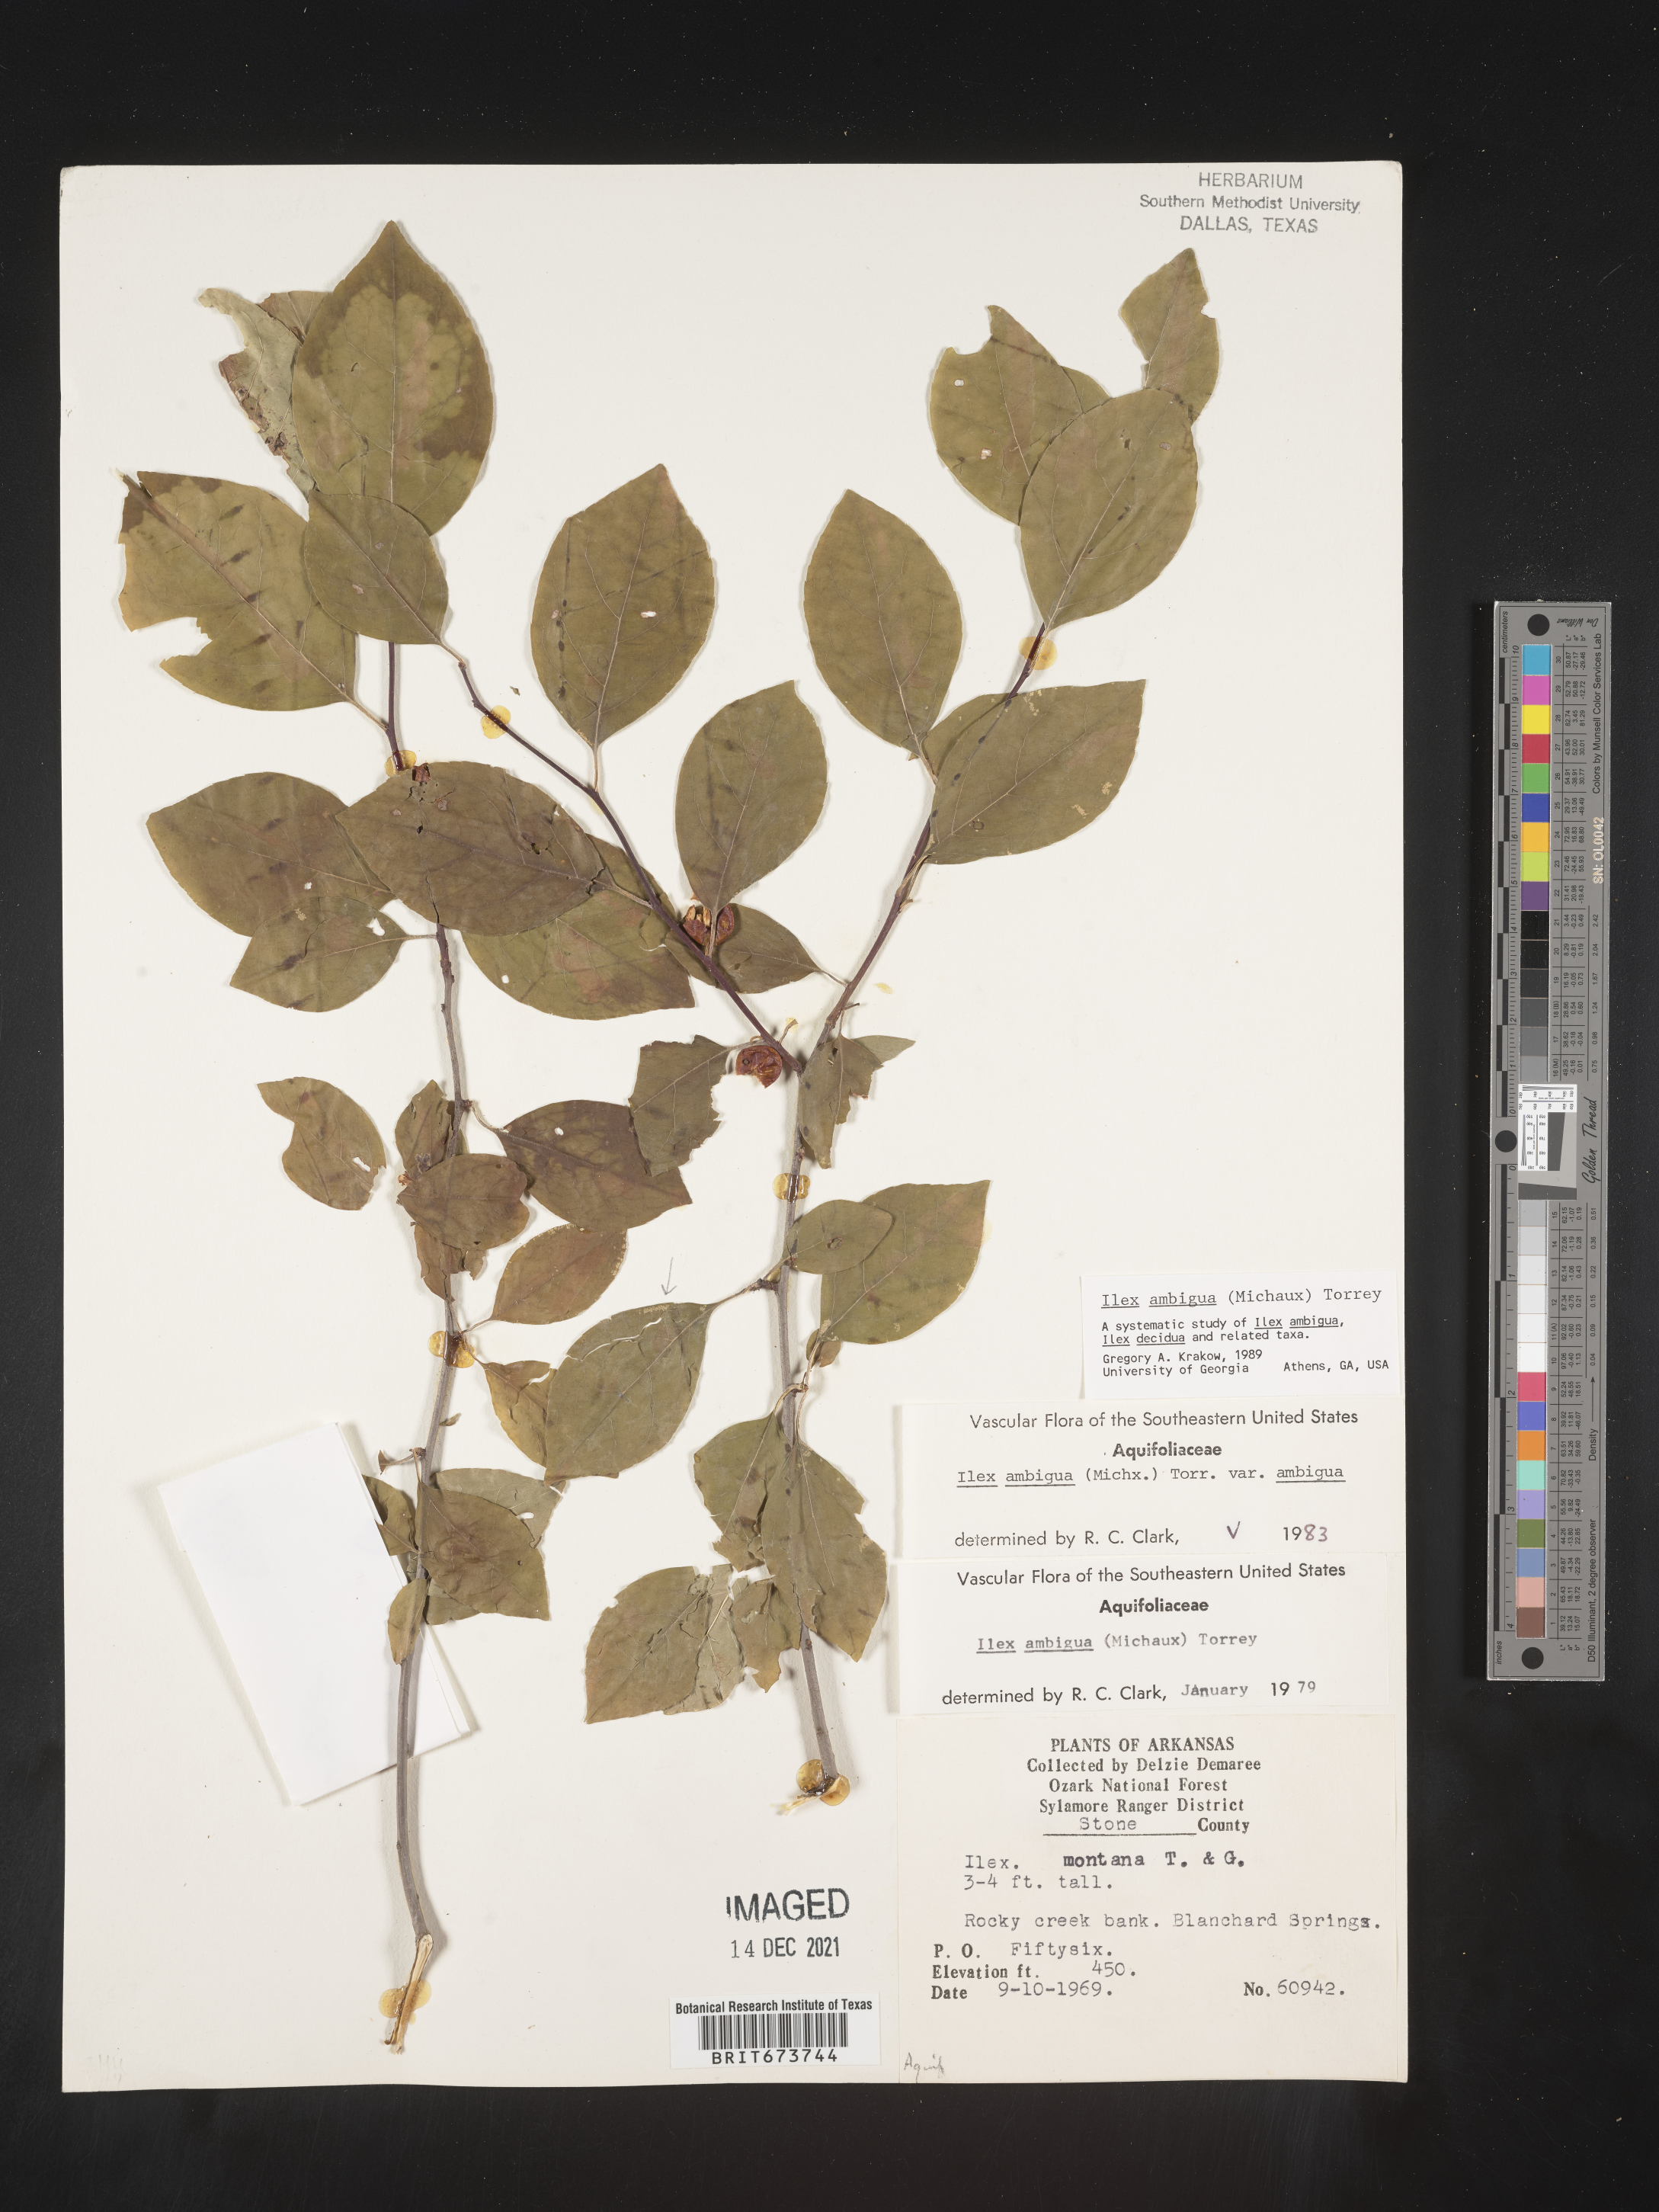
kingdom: Plantae
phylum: Tracheophyta
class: Magnoliopsida
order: Aquifoliales
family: Aquifoliaceae
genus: Ilex
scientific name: Ilex ambigua
